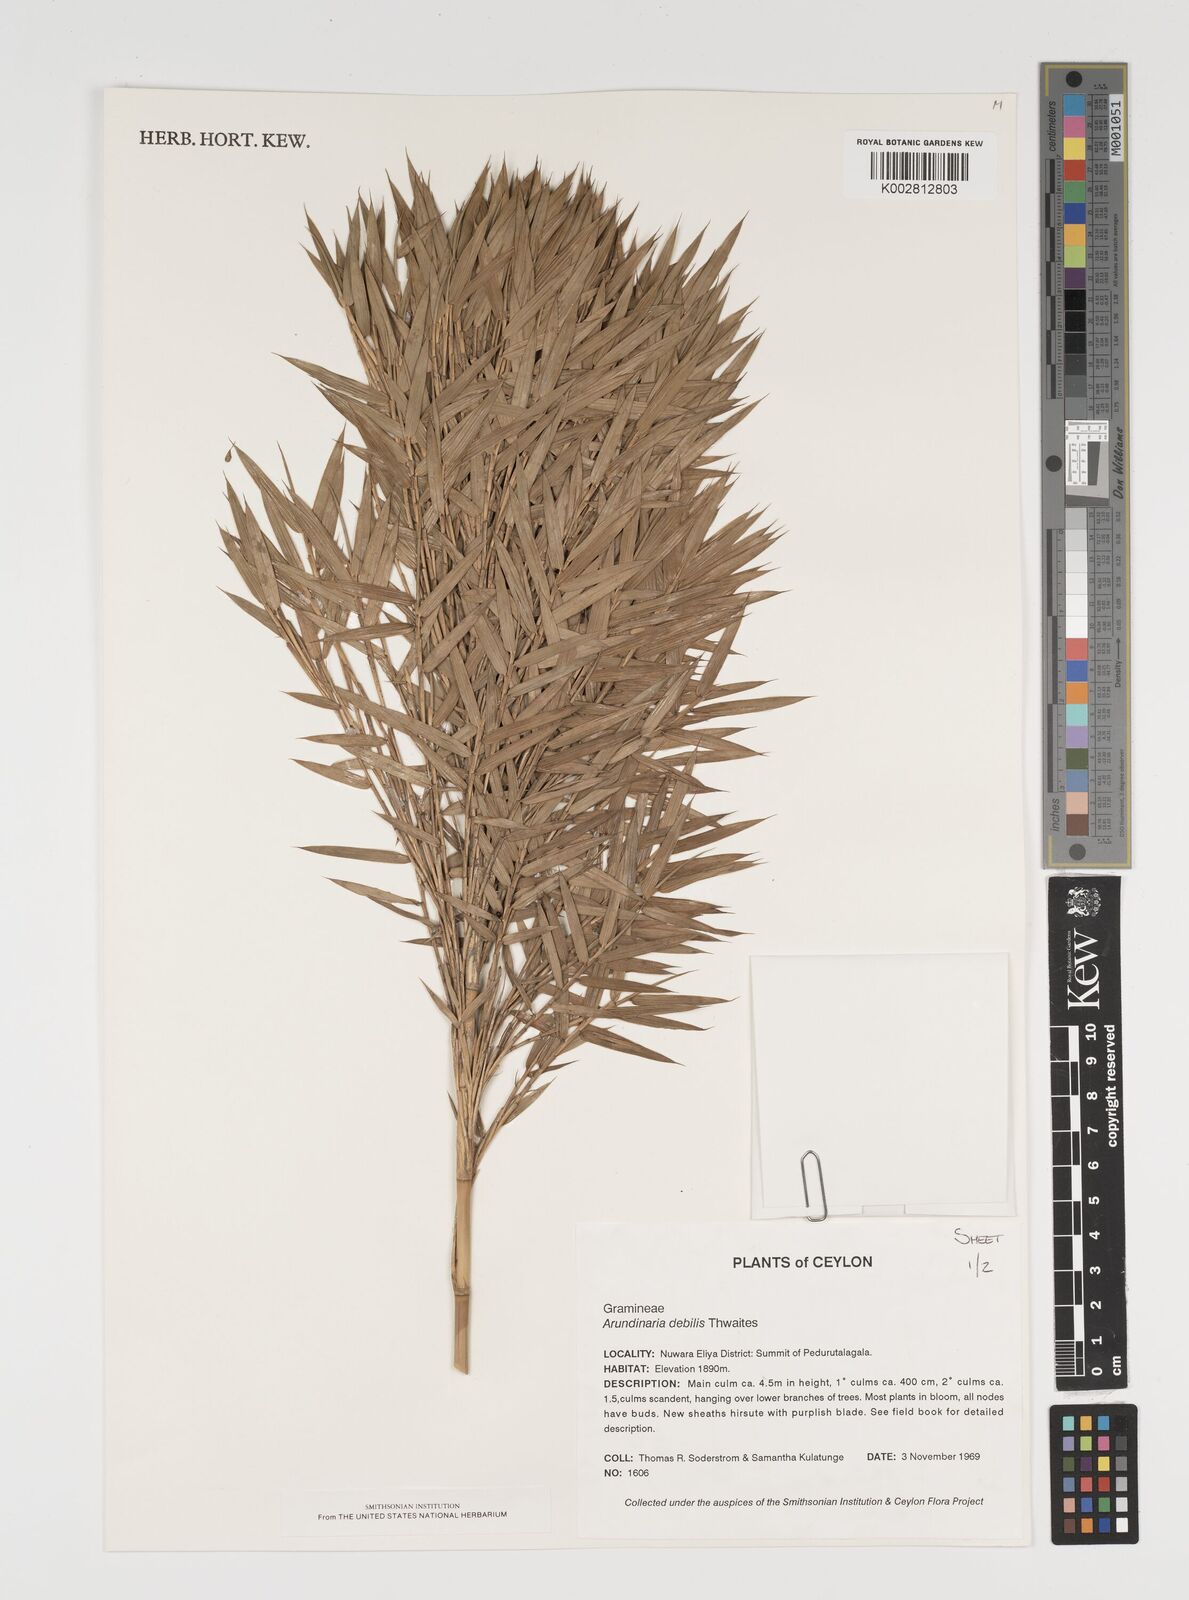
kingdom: Plantae
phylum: Tracheophyta
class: Liliopsida
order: Poales
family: Poaceae
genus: Kuruna
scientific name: Kuruna debilis
